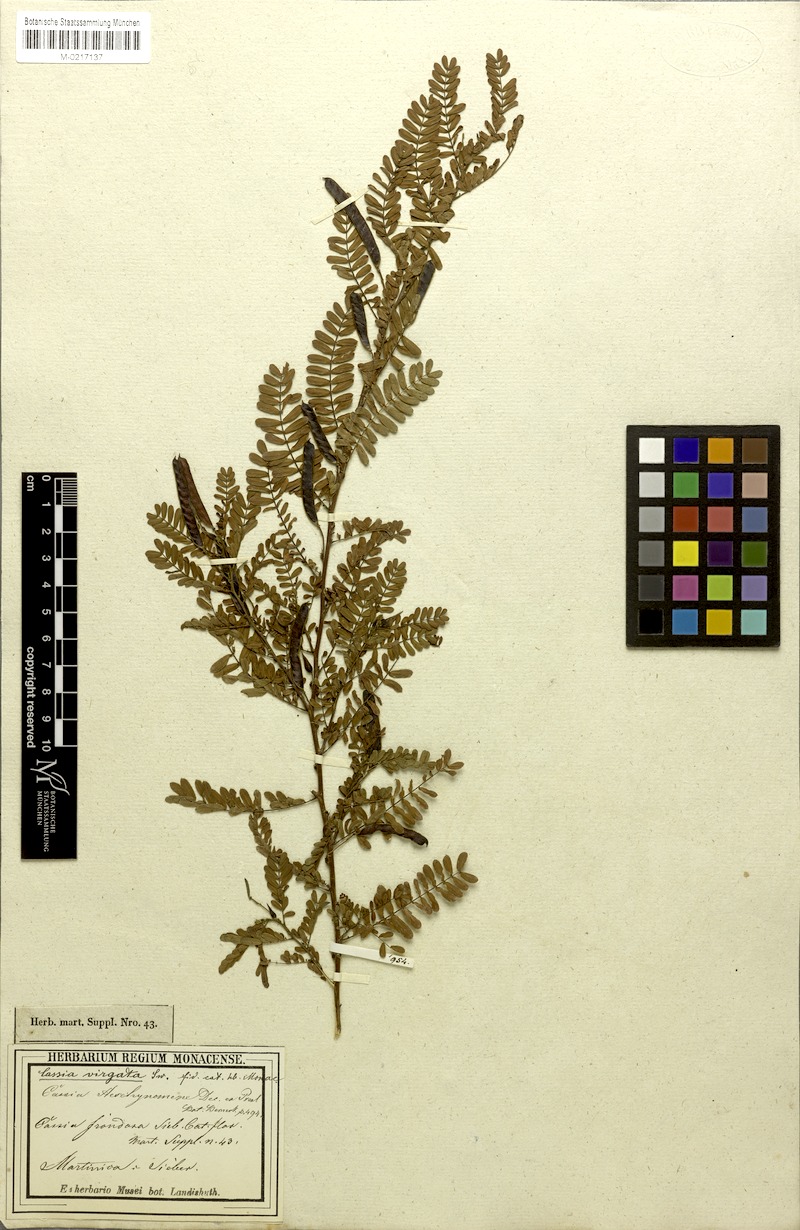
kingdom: Plantae
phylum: Tracheophyta
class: Magnoliopsida
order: Fabales
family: Fabaceae
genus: Chamaecrista
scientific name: Chamaecrista glandulosa
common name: Wild peas
